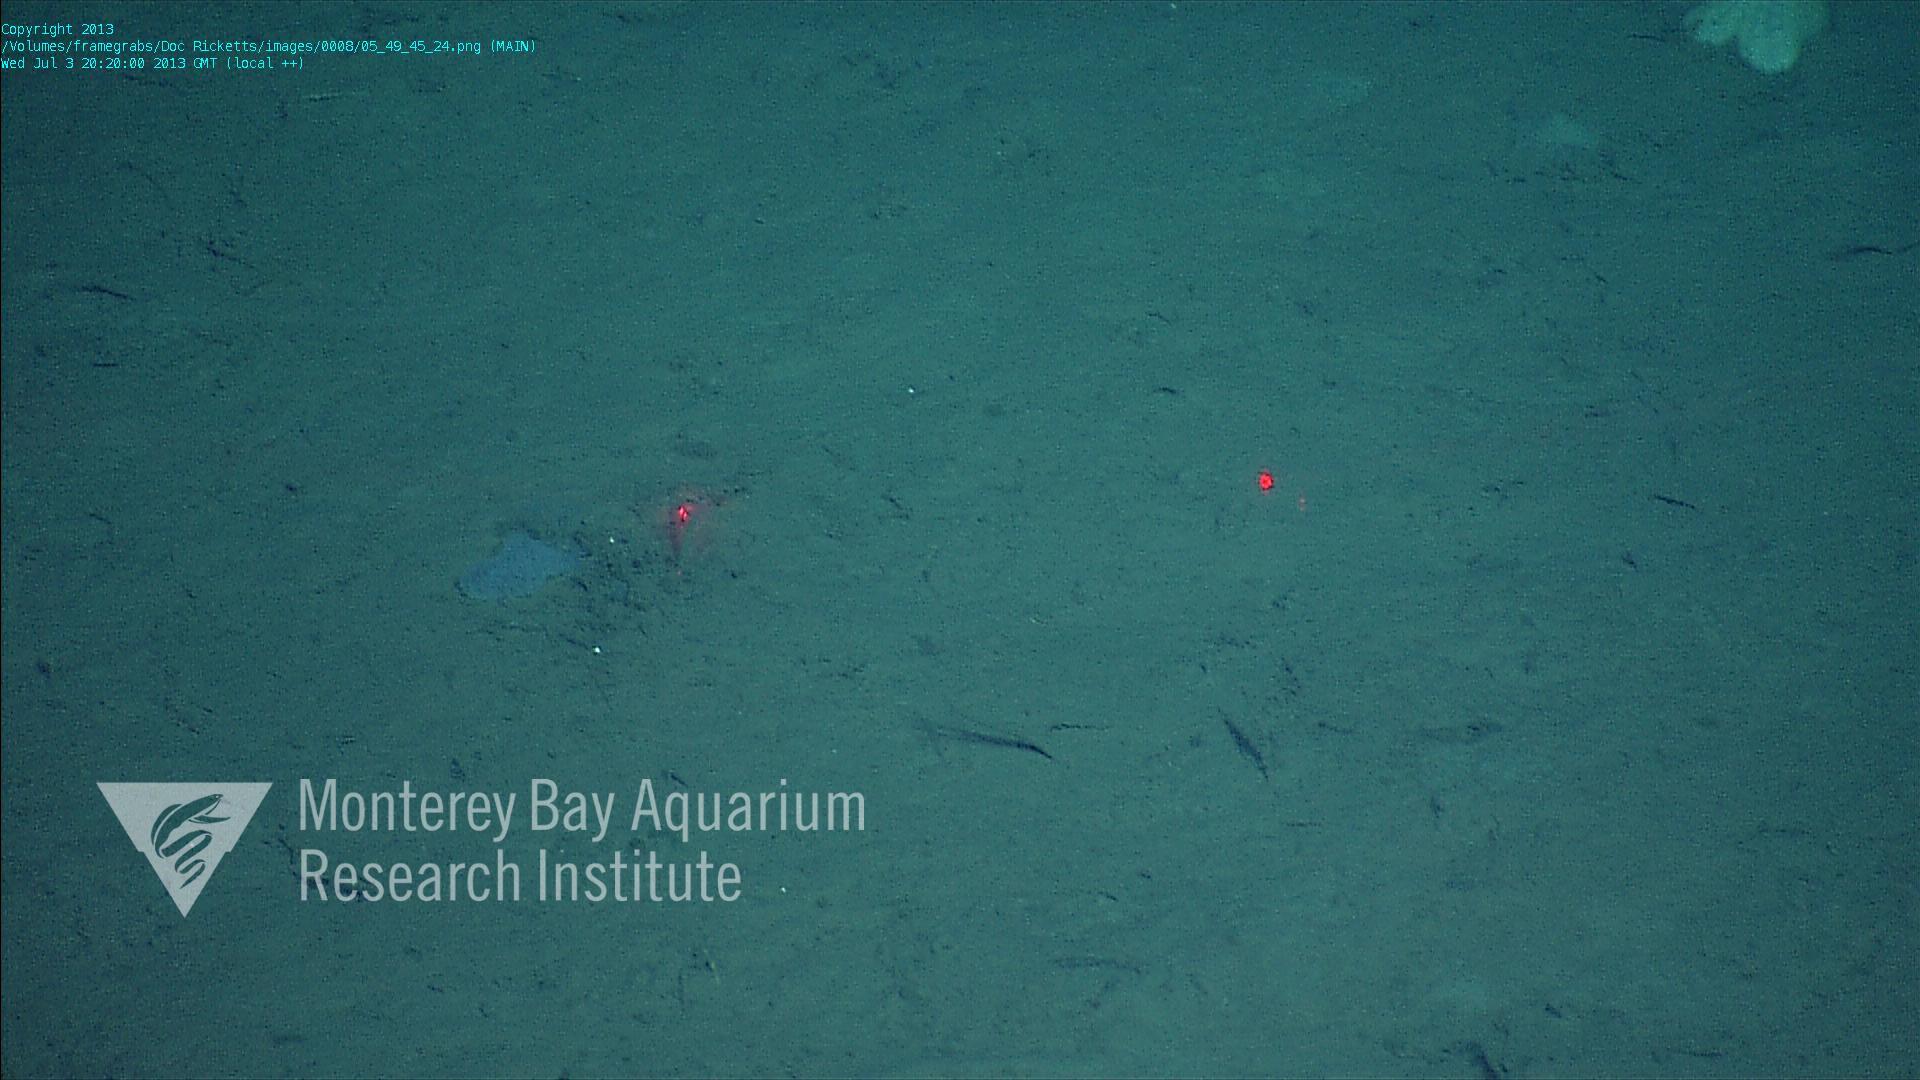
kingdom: Animalia
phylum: Porifera
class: Hexactinellida
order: Lyssacinosida
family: Euplectellidae
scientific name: Euplectellidae
